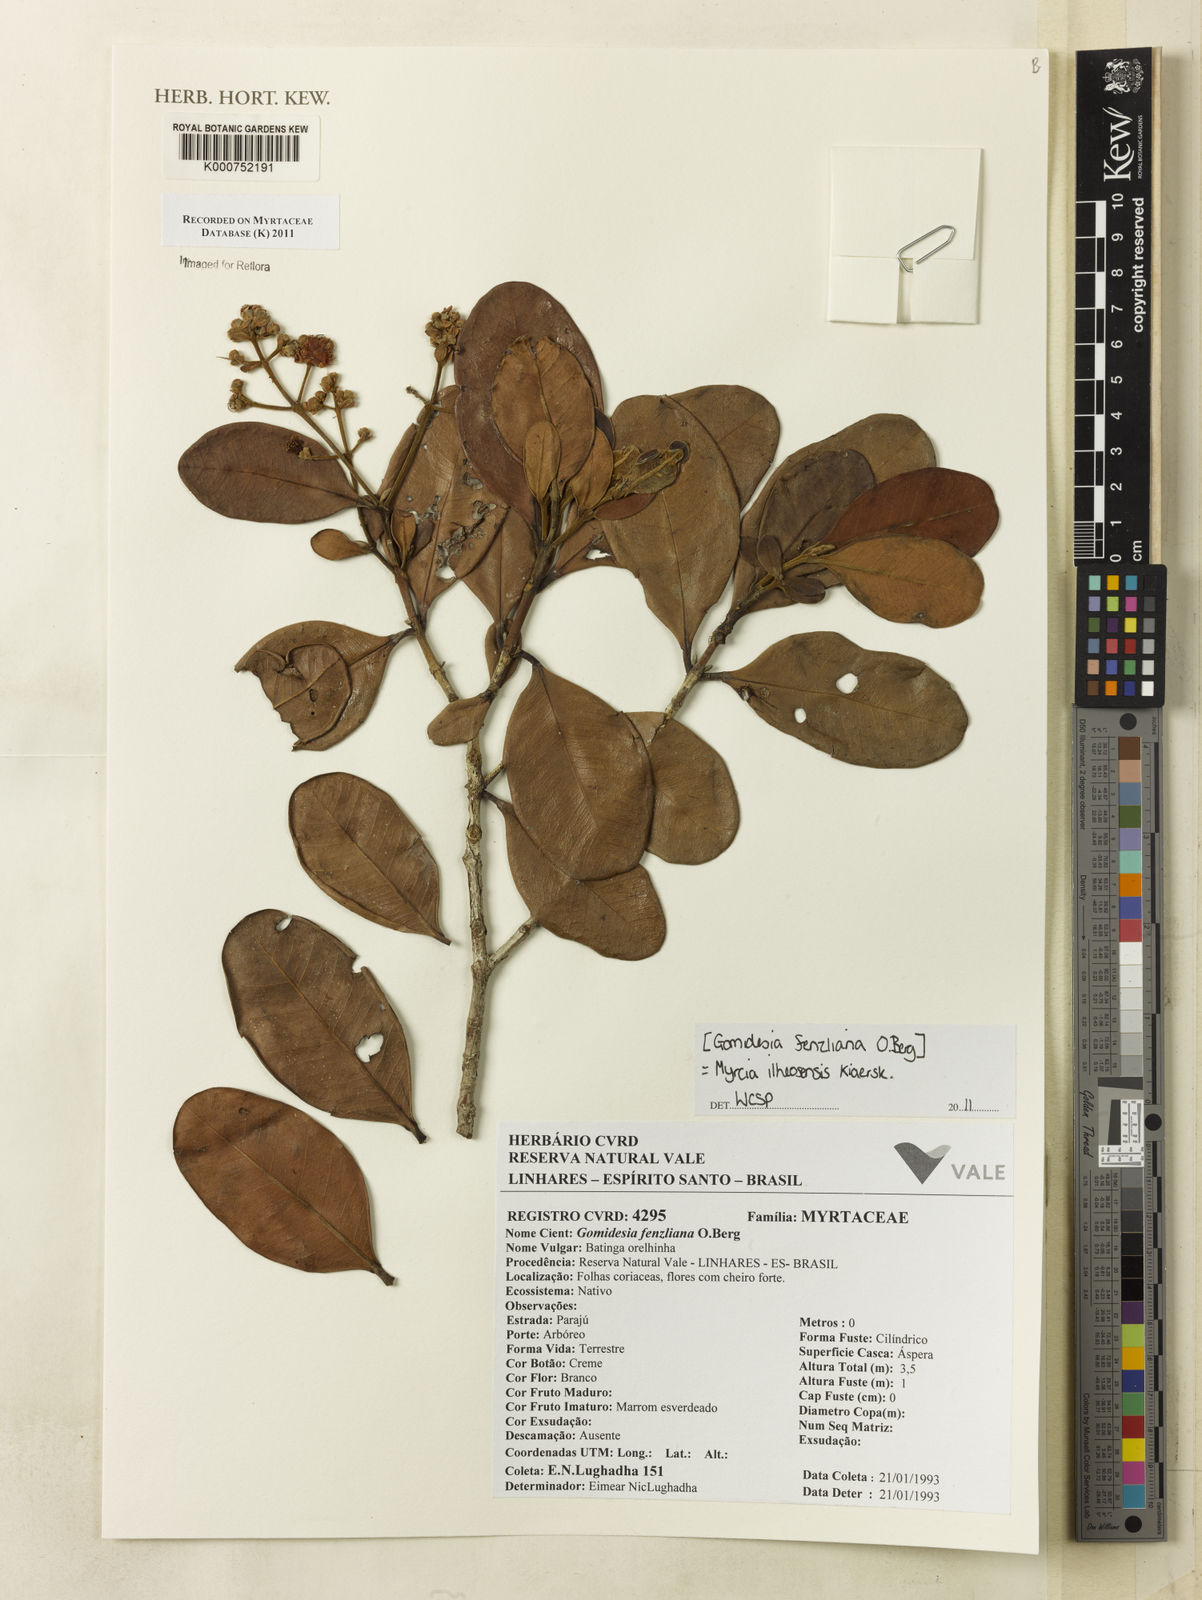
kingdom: Plantae
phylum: Tracheophyta
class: Magnoliopsida
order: Myrtales
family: Myrtaceae
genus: Myrcia
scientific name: Myrcia ilheosensis
